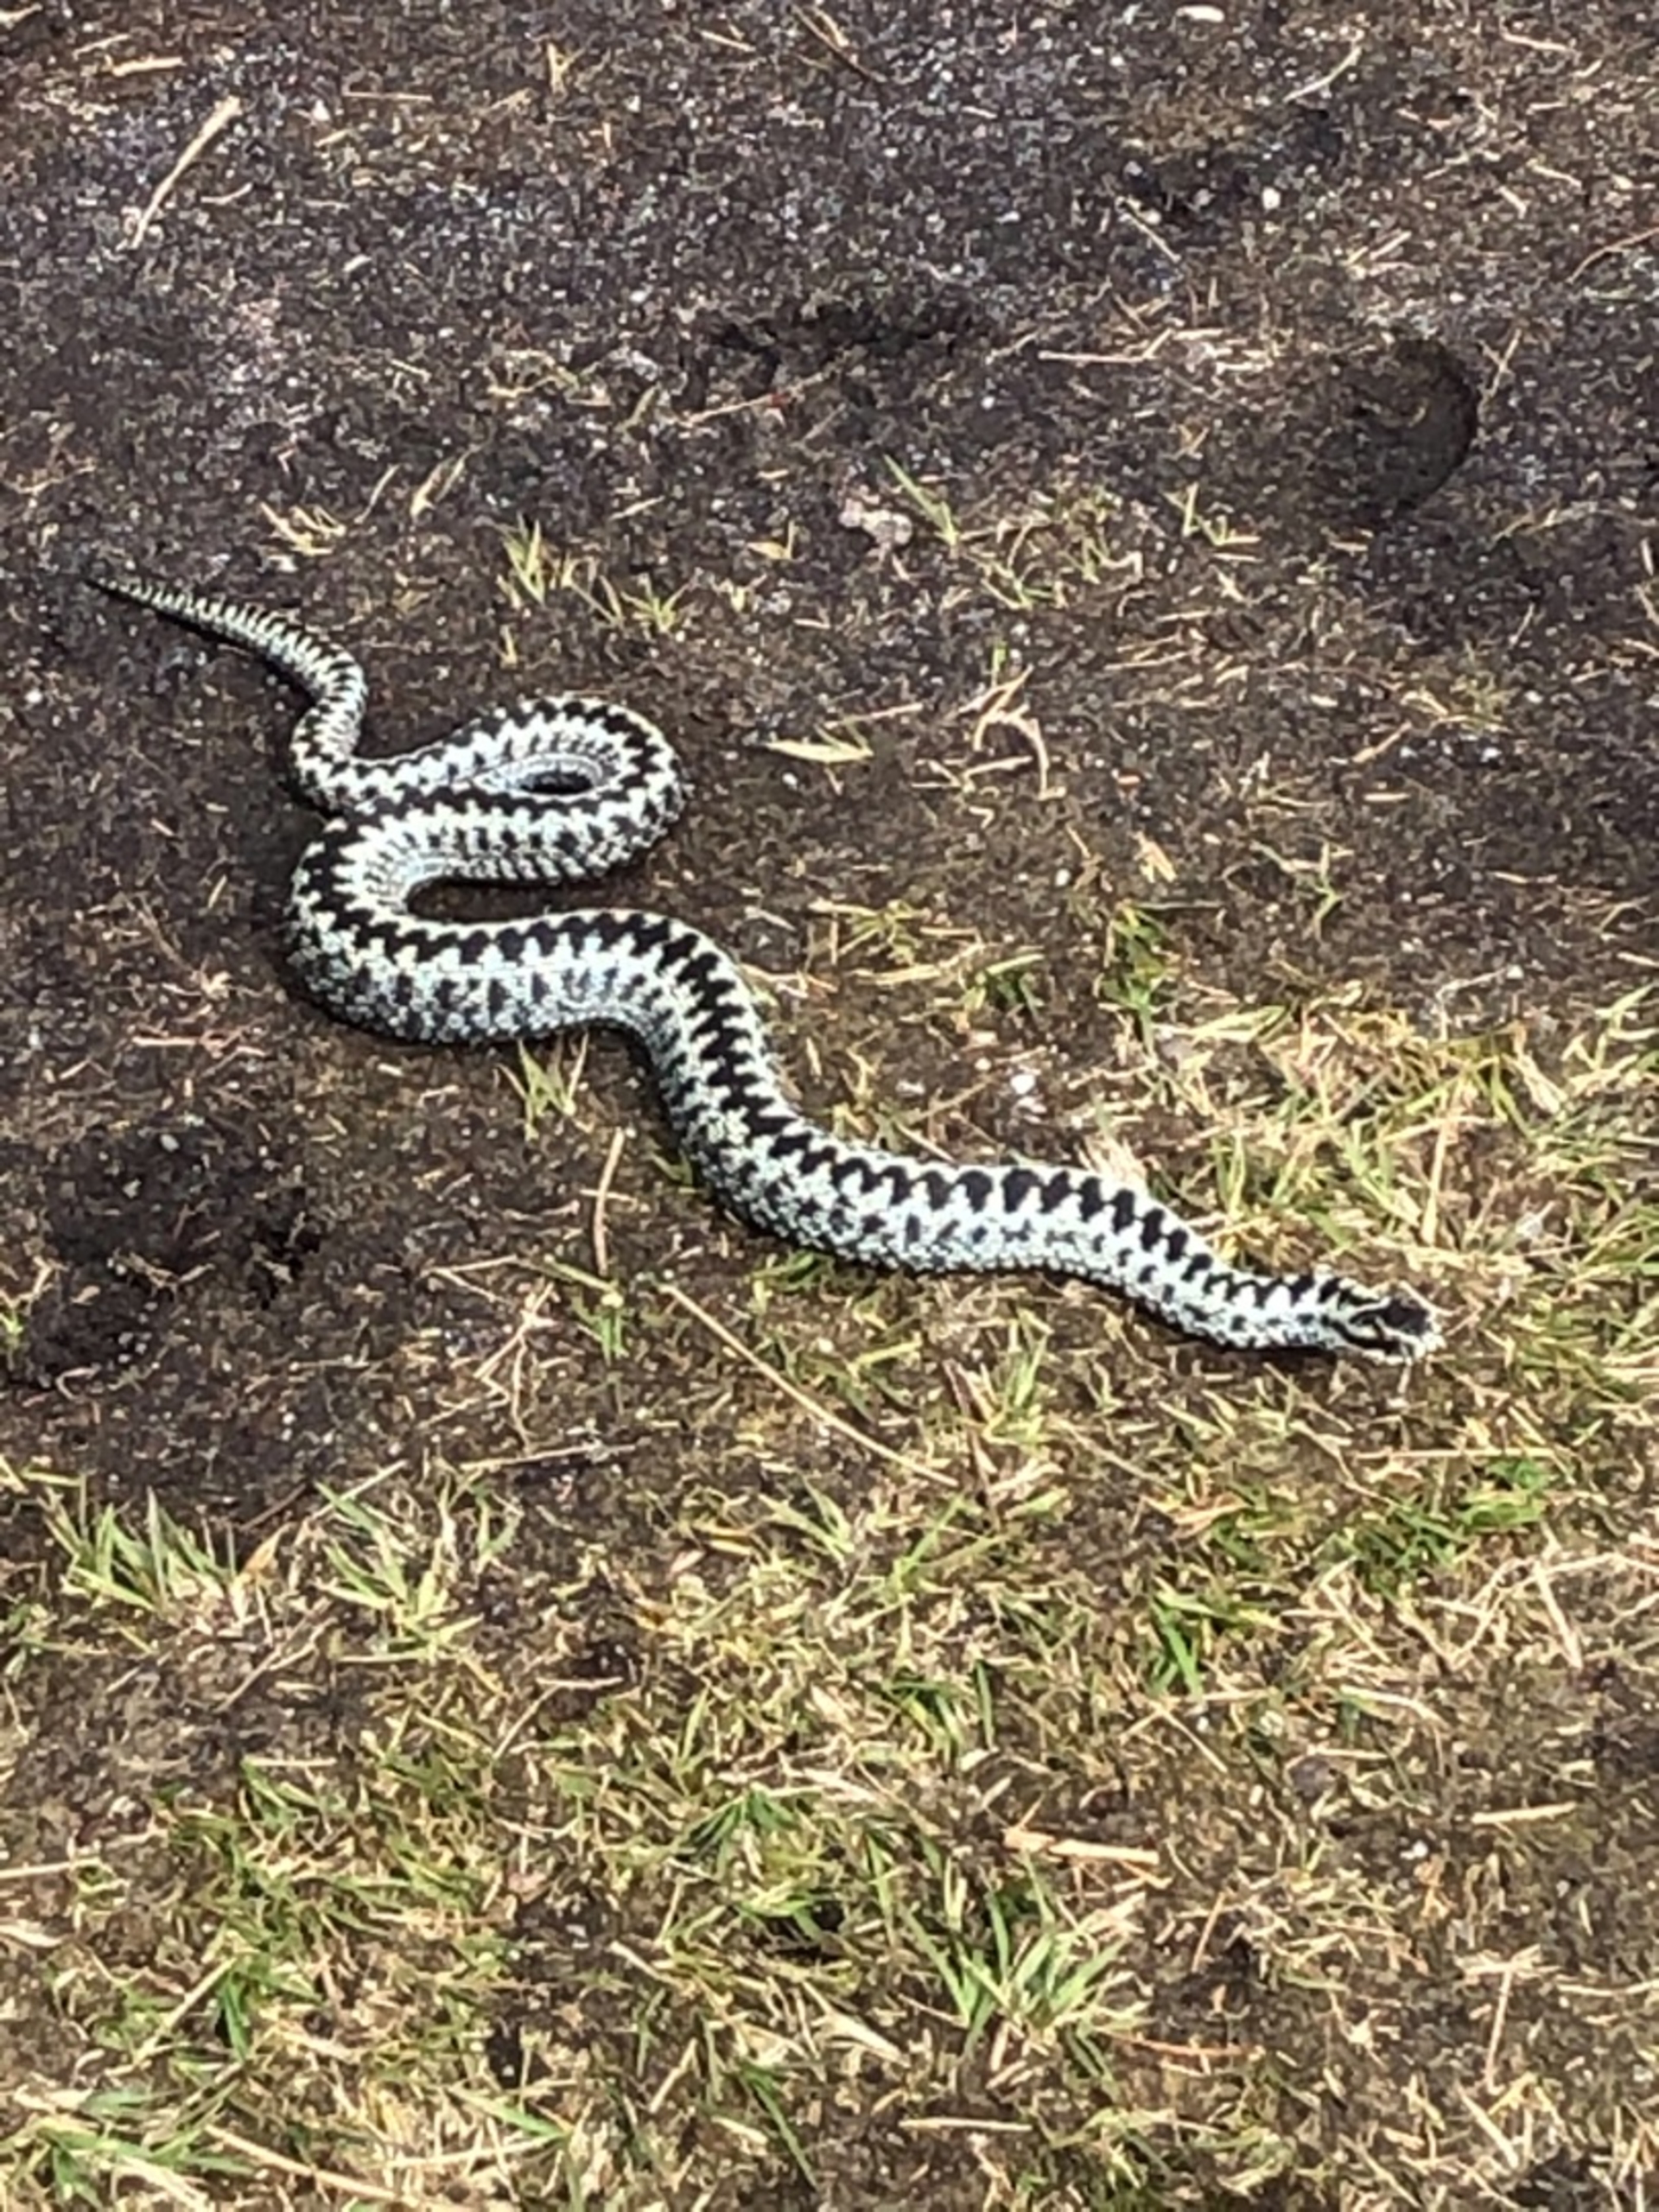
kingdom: Animalia
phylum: Chordata
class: Squamata
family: Viperidae
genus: Vipera
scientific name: Vipera berus
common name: Hugorm
